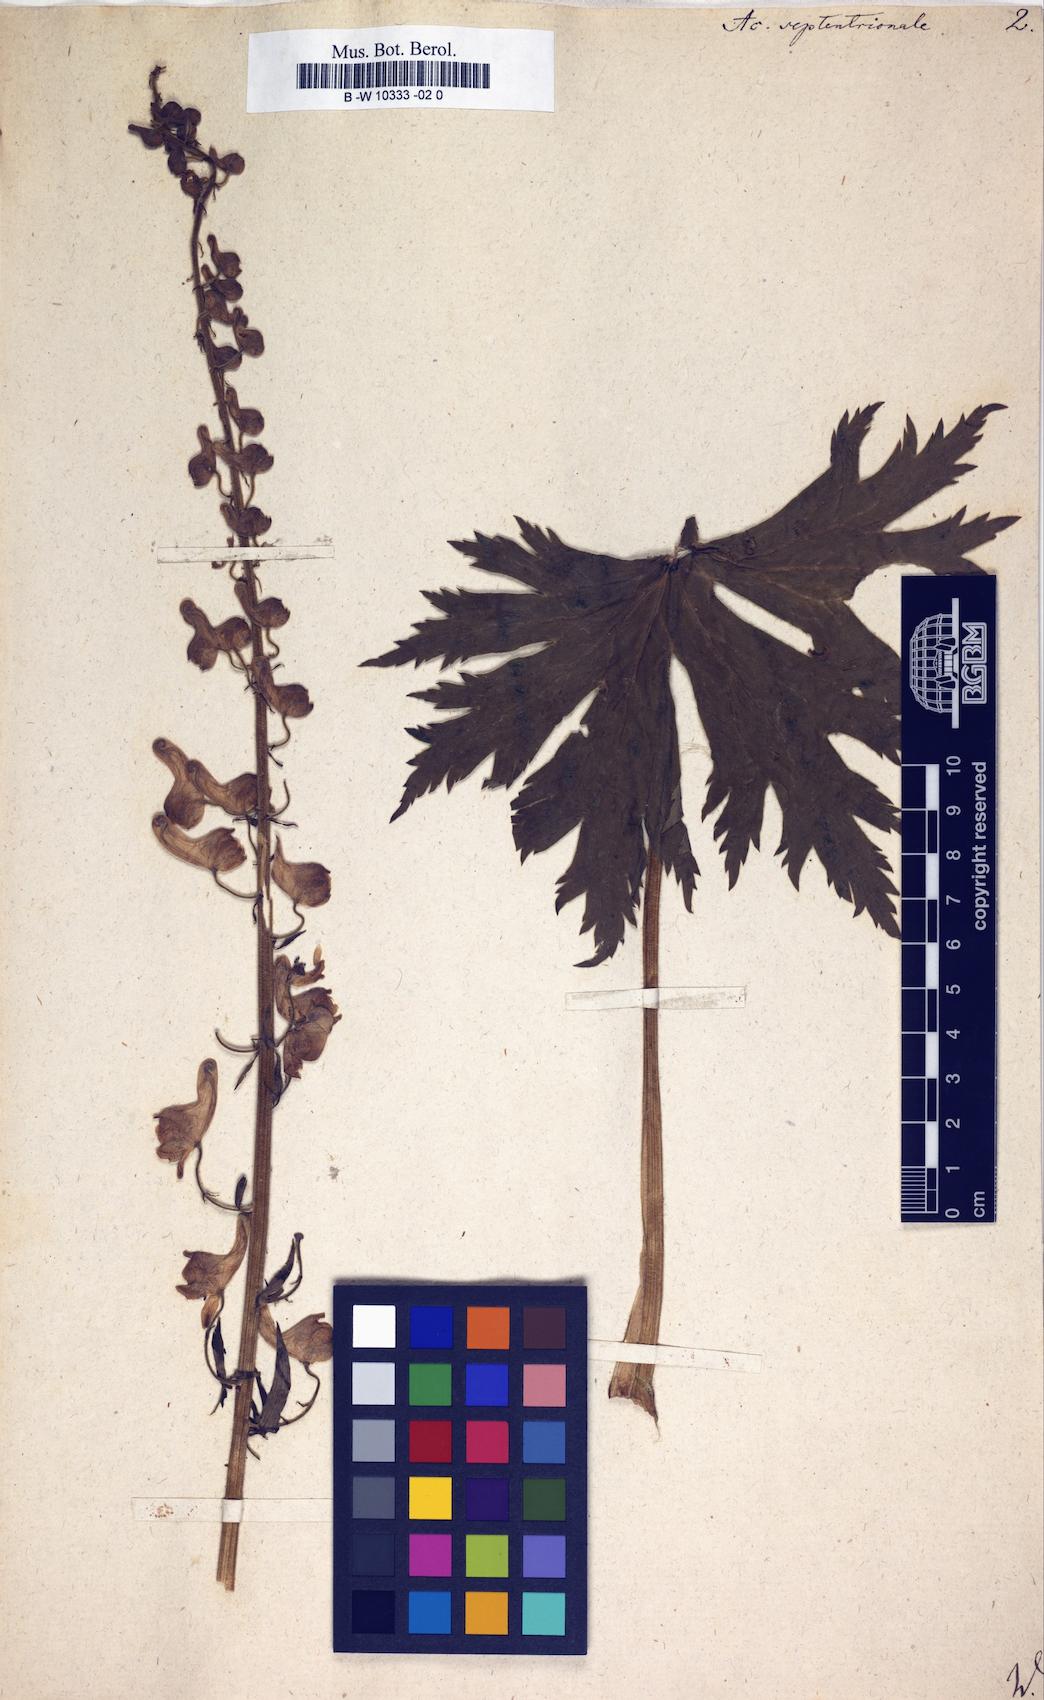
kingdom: Plantae
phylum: Tracheophyta
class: Magnoliopsida
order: Ranunculales
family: Ranunculaceae
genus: Aconitum
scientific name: Aconitum septentrionale
